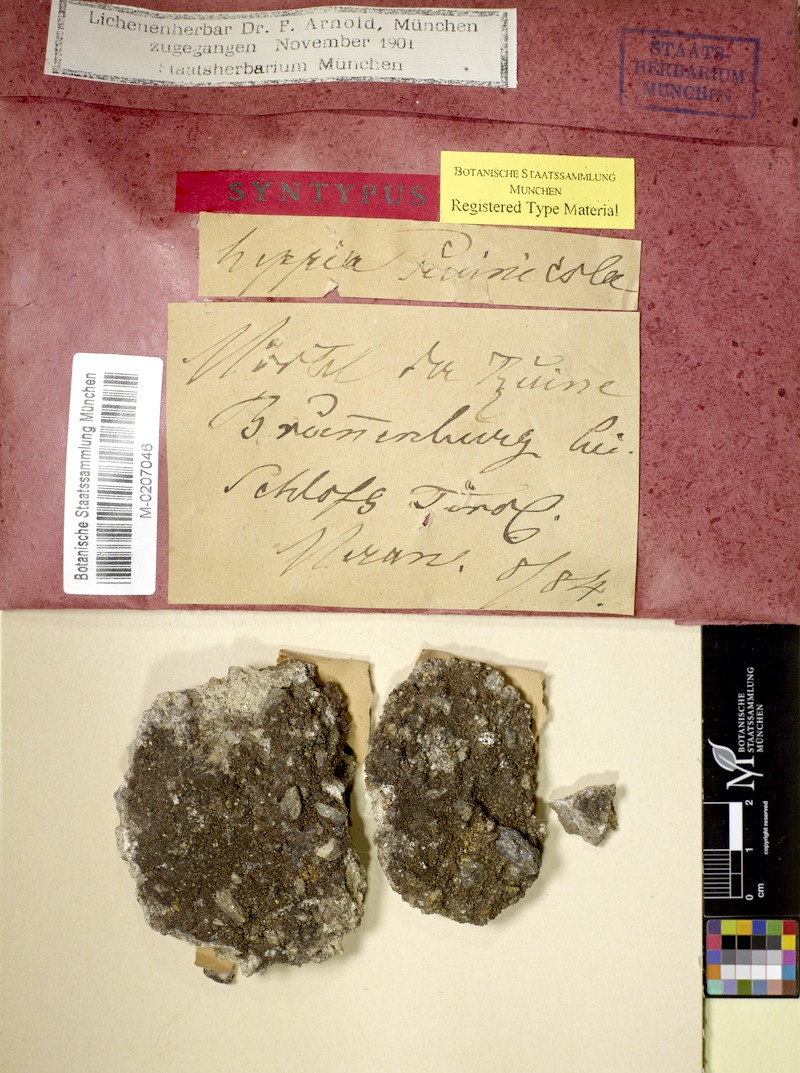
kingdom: Fungi
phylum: Ascomycota
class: Lichinomycetes
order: Lichinales
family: Peltulaceae
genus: Peltula
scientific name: Peltula euploca
